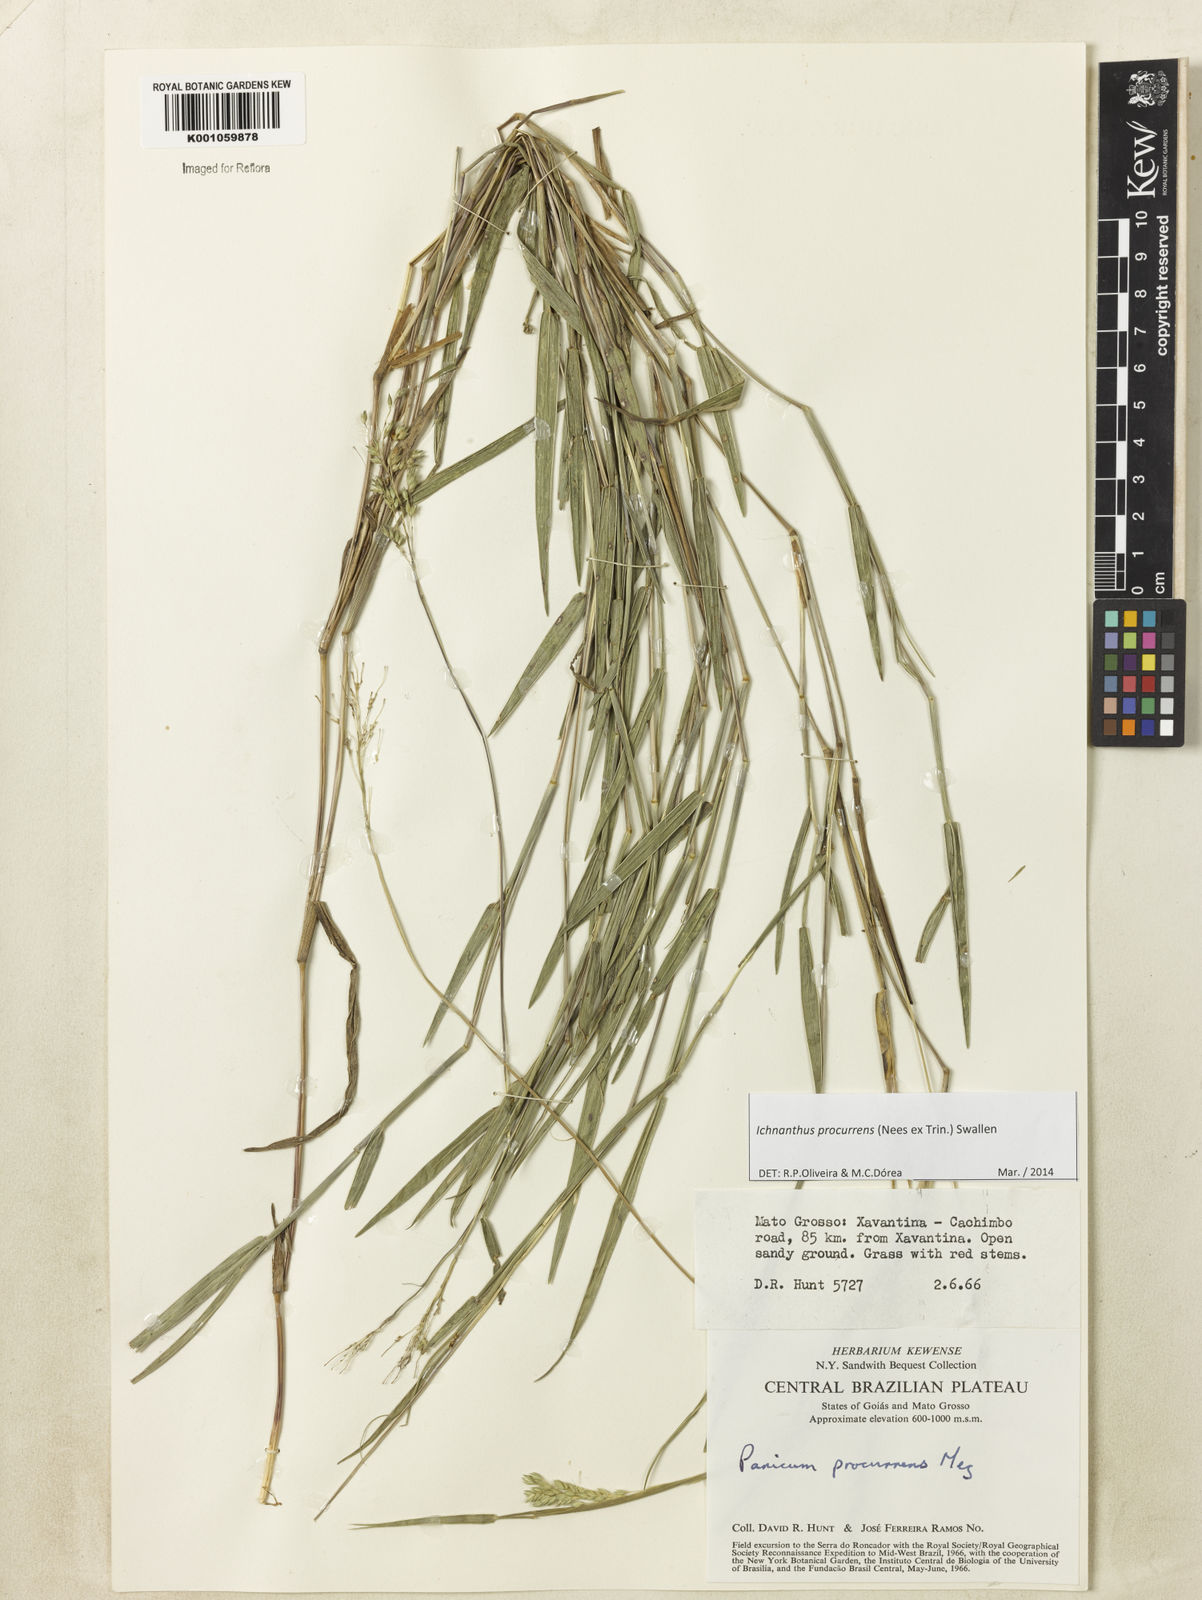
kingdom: Plantae
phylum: Tracheophyta
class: Liliopsida
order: Poales
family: Poaceae
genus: Oedochloa
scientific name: Oedochloa procurrens
